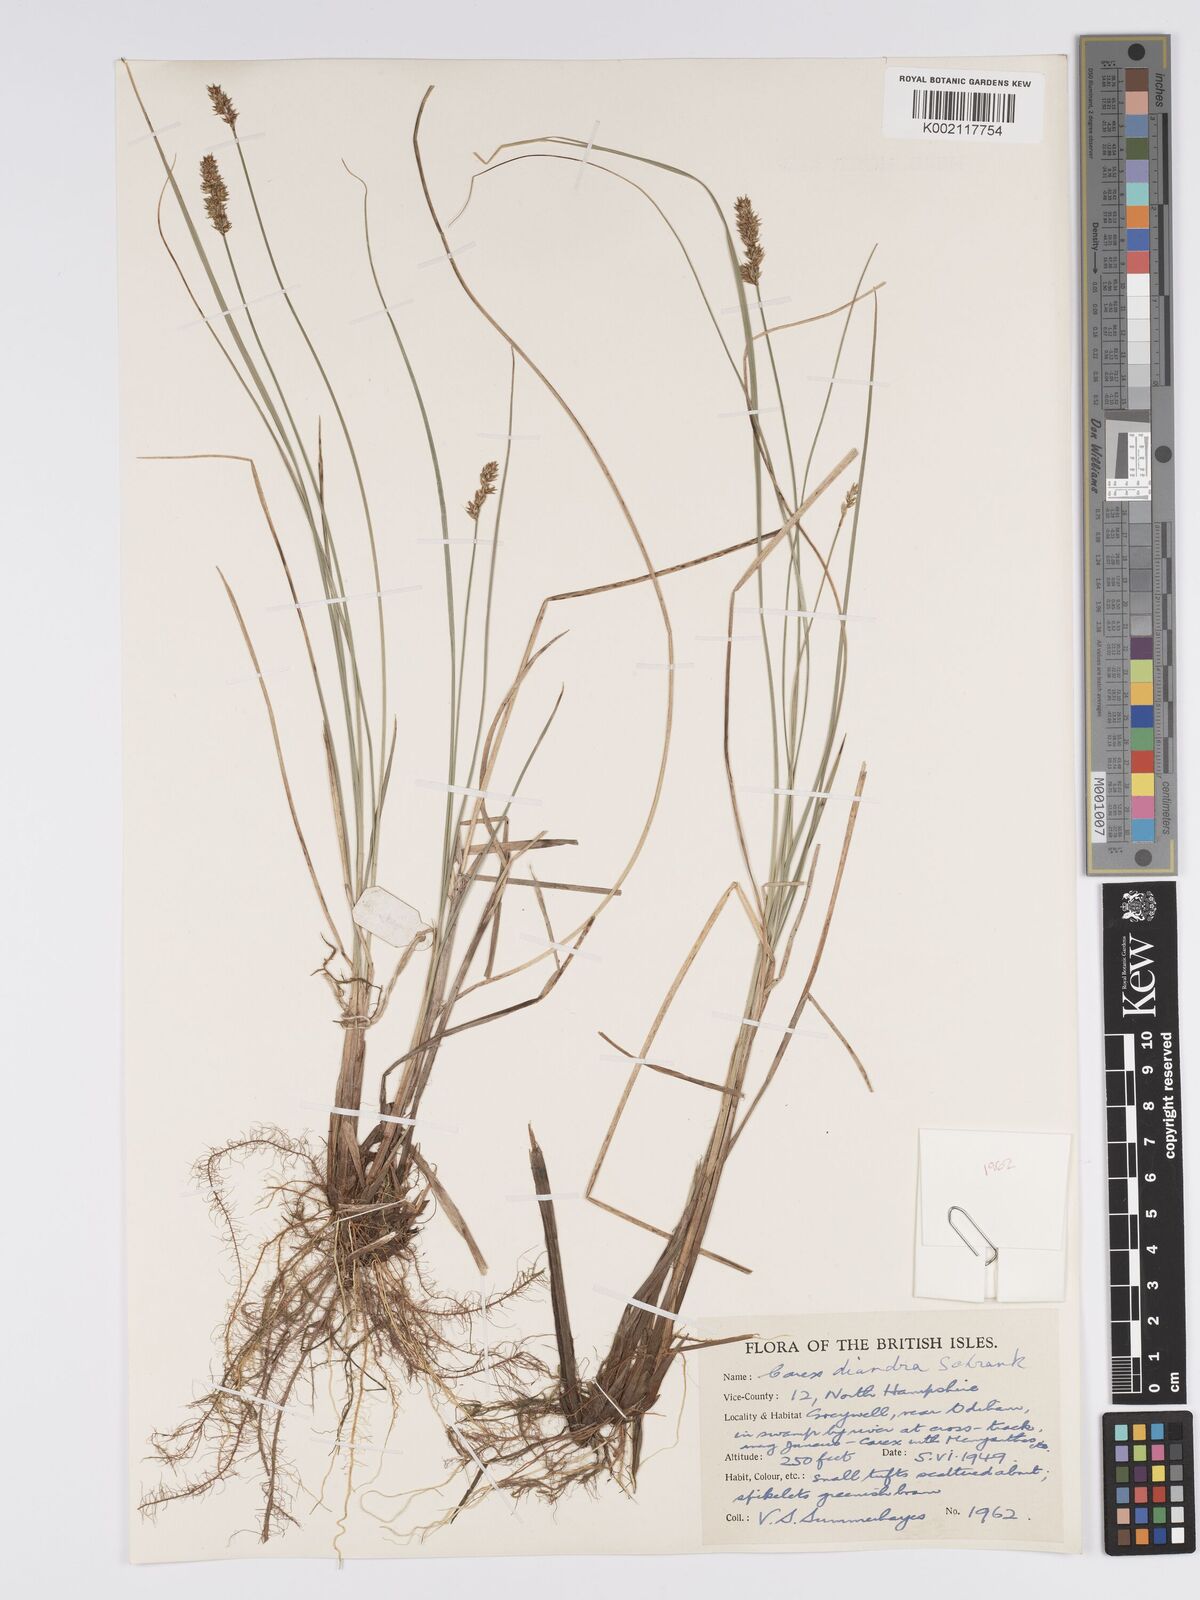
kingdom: Plantae
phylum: Tracheophyta
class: Liliopsida
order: Poales
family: Cyperaceae
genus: Carex
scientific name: Carex diandra
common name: Lesser tussock-sedge
